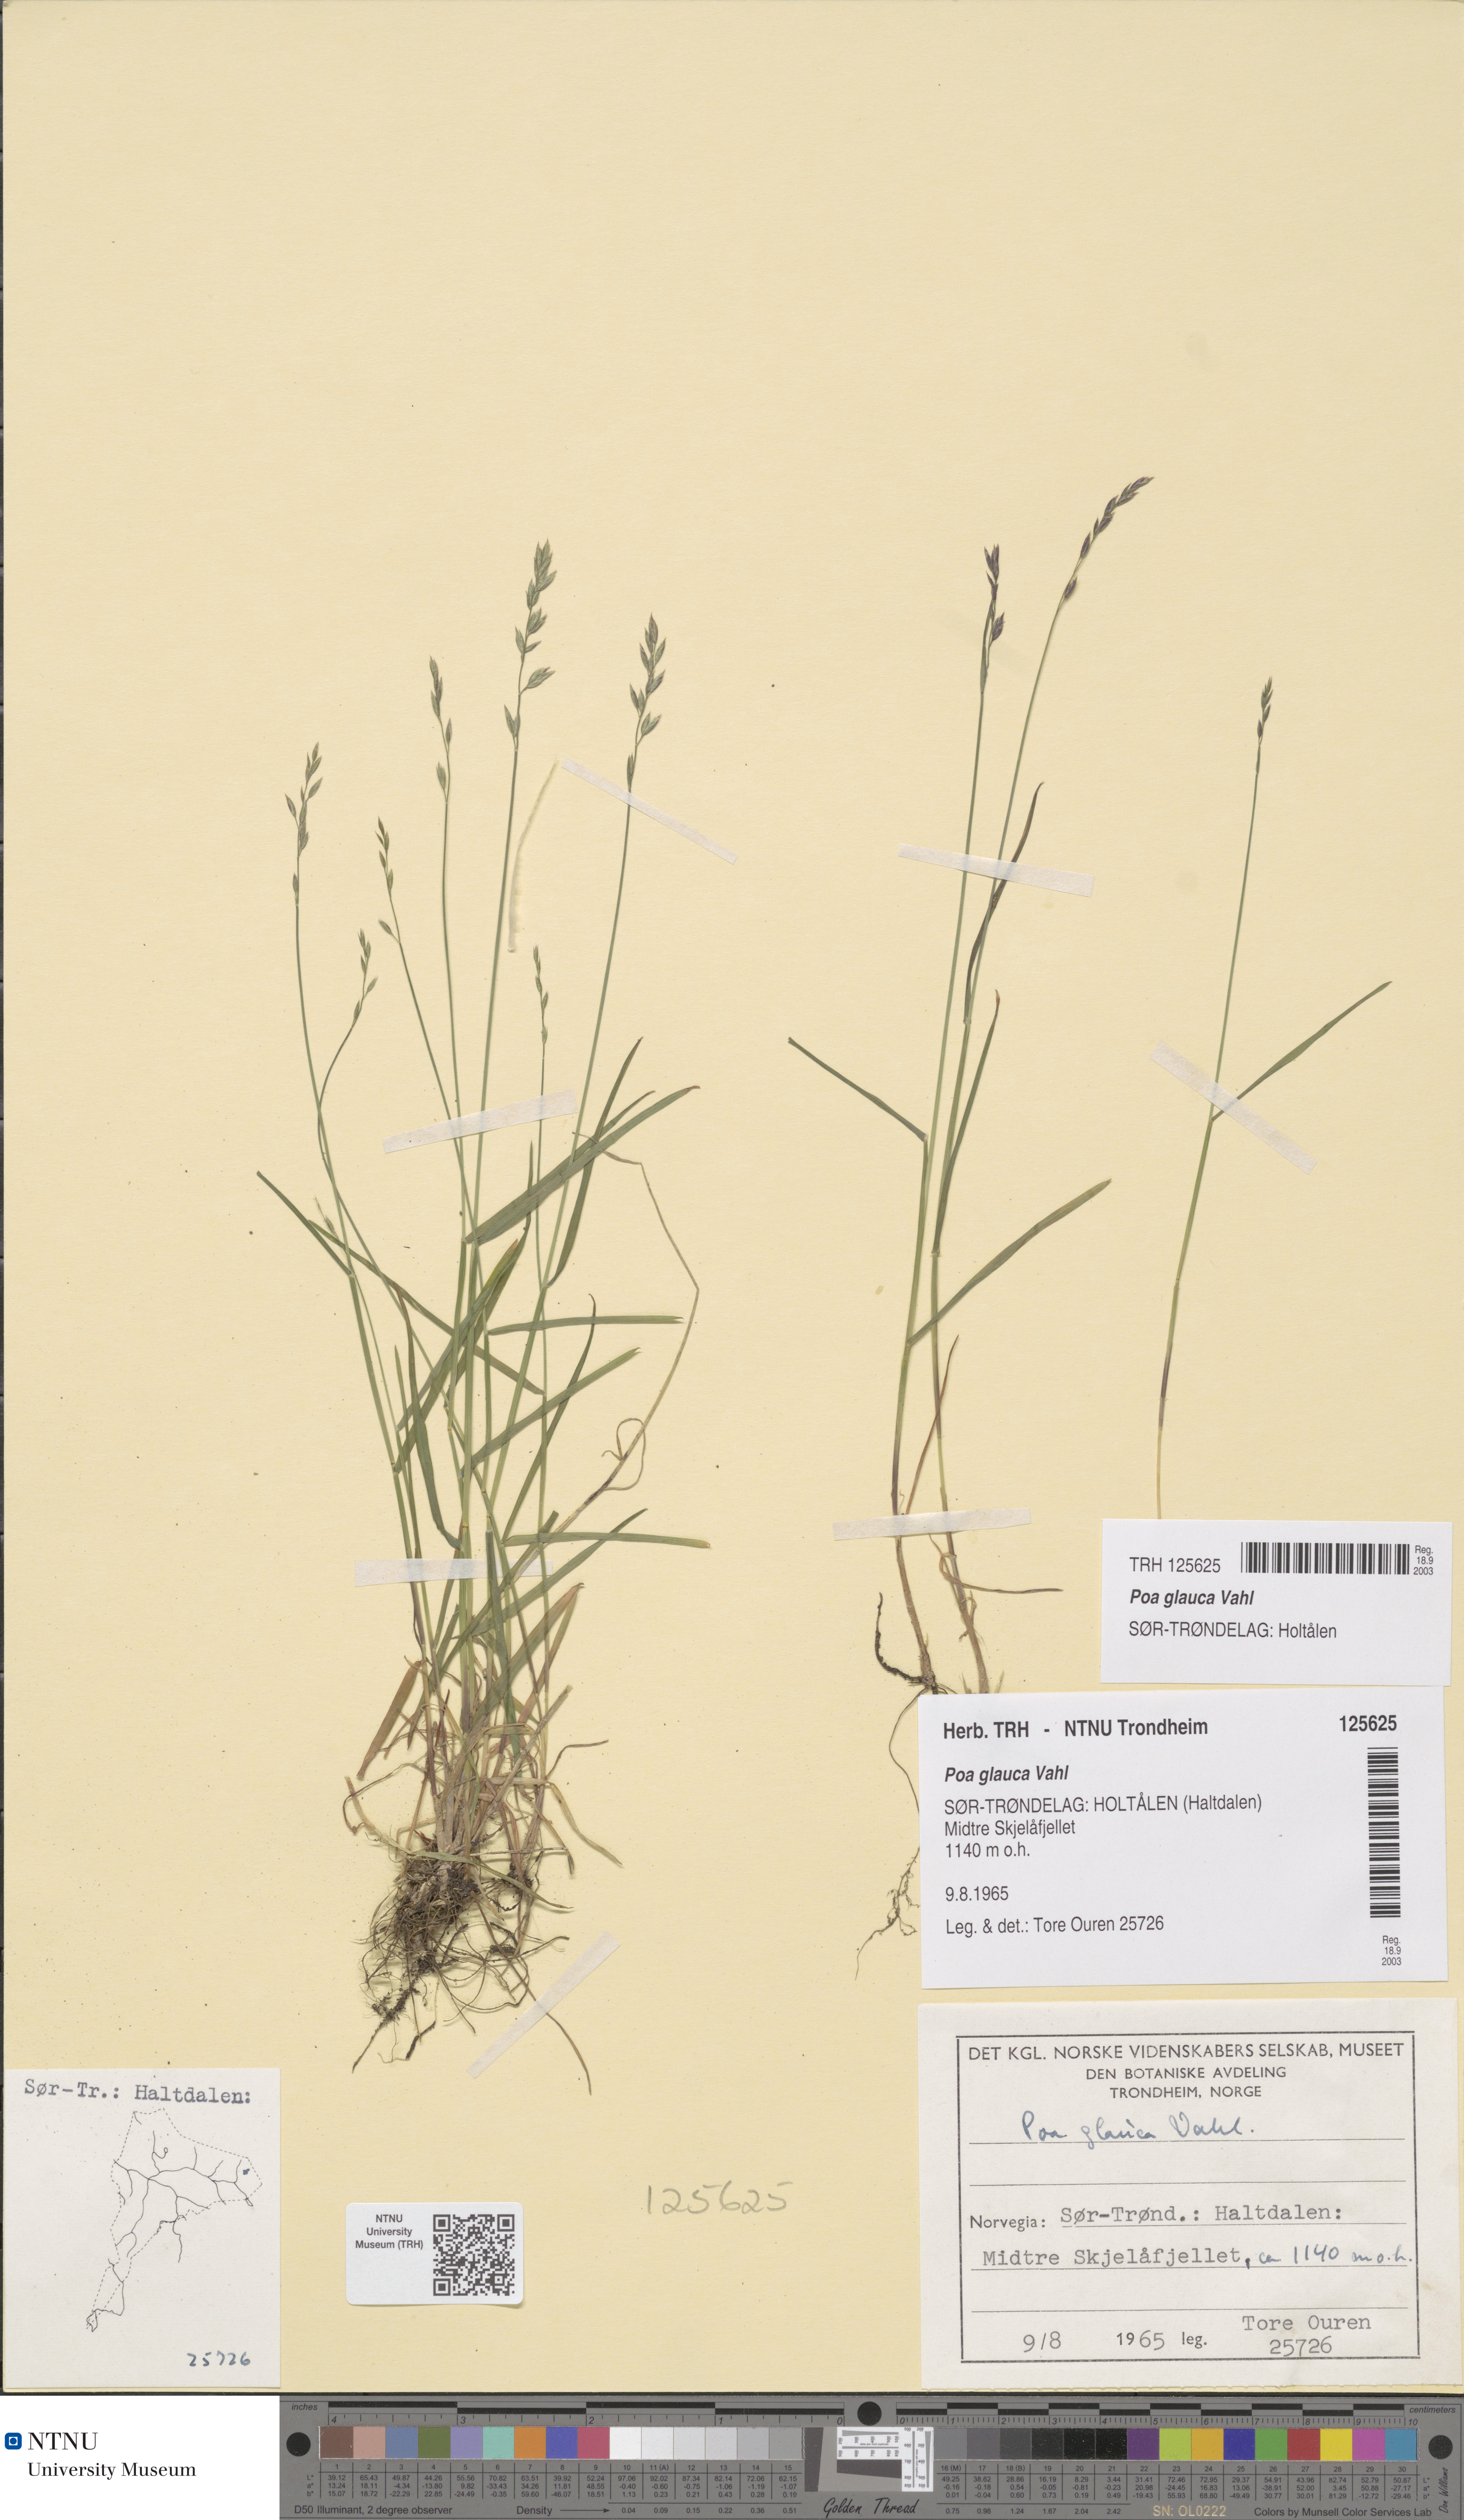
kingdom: Plantae
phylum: Tracheophyta
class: Liliopsida
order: Poales
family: Poaceae
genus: Poa
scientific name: Poa glauca
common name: Glaucous bluegrass
